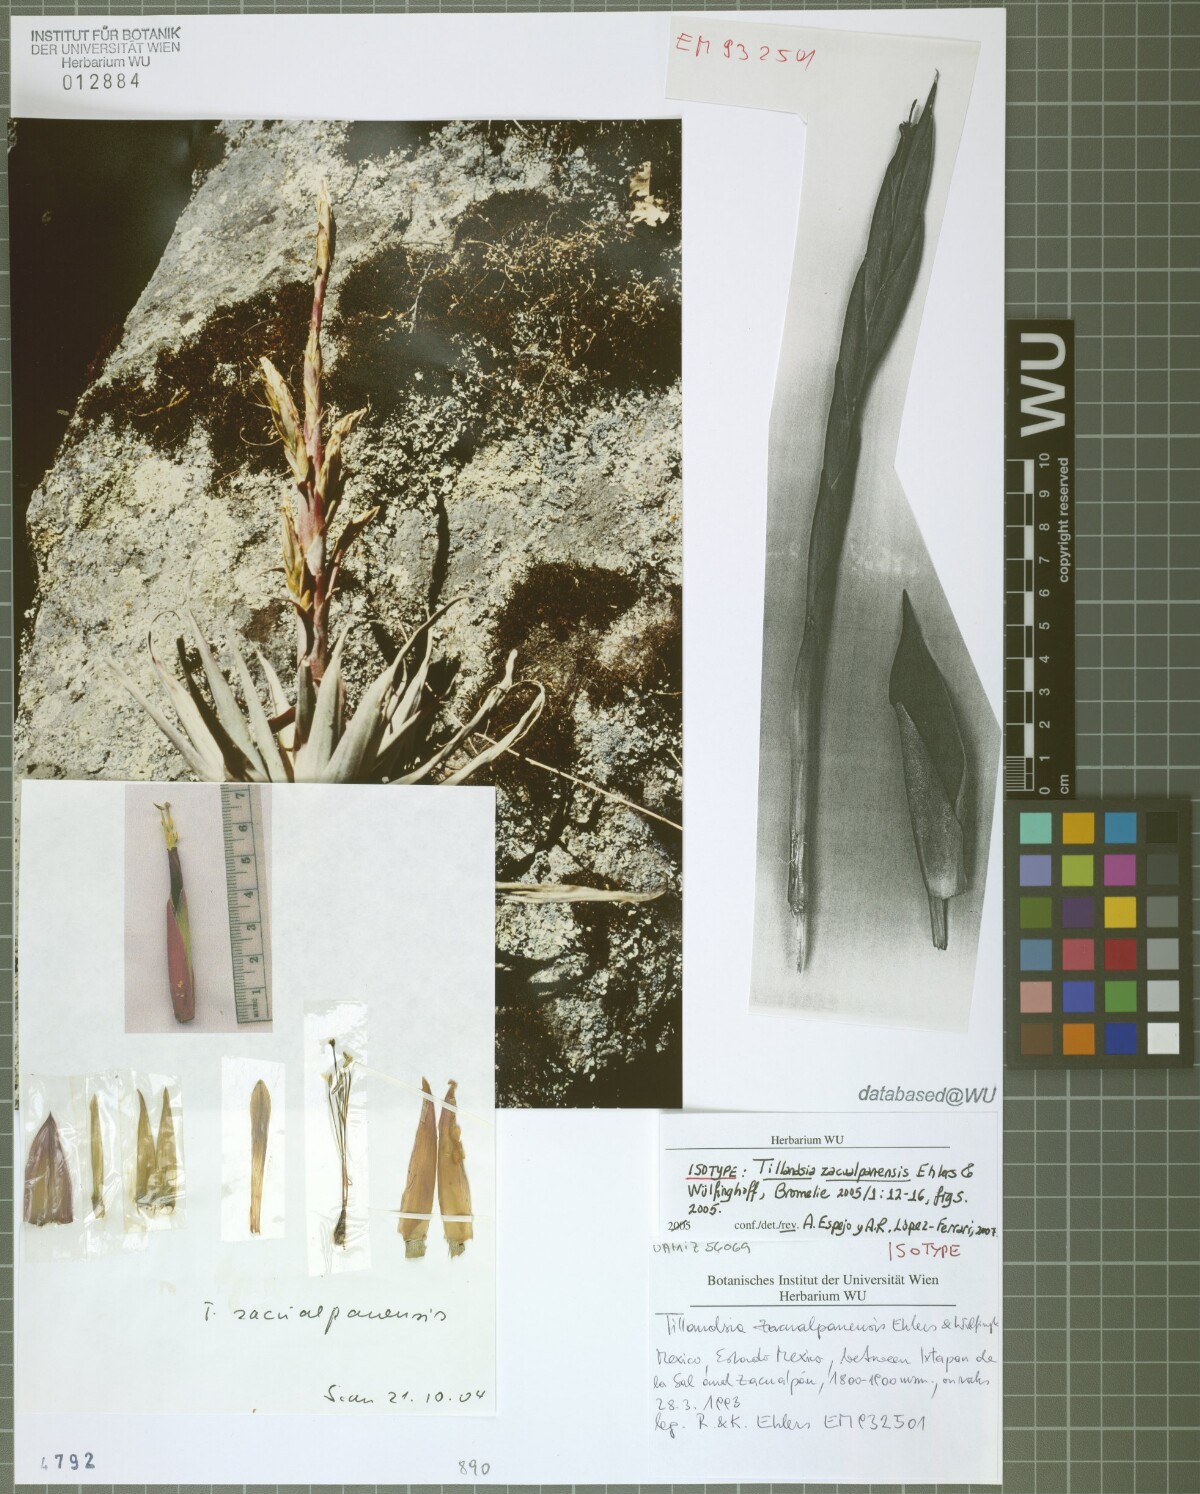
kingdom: Plantae
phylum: Tracheophyta
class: Liliopsida
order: Poales
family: Bromeliaceae
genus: Tillandsia
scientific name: Tillandsia zacualpanensis
